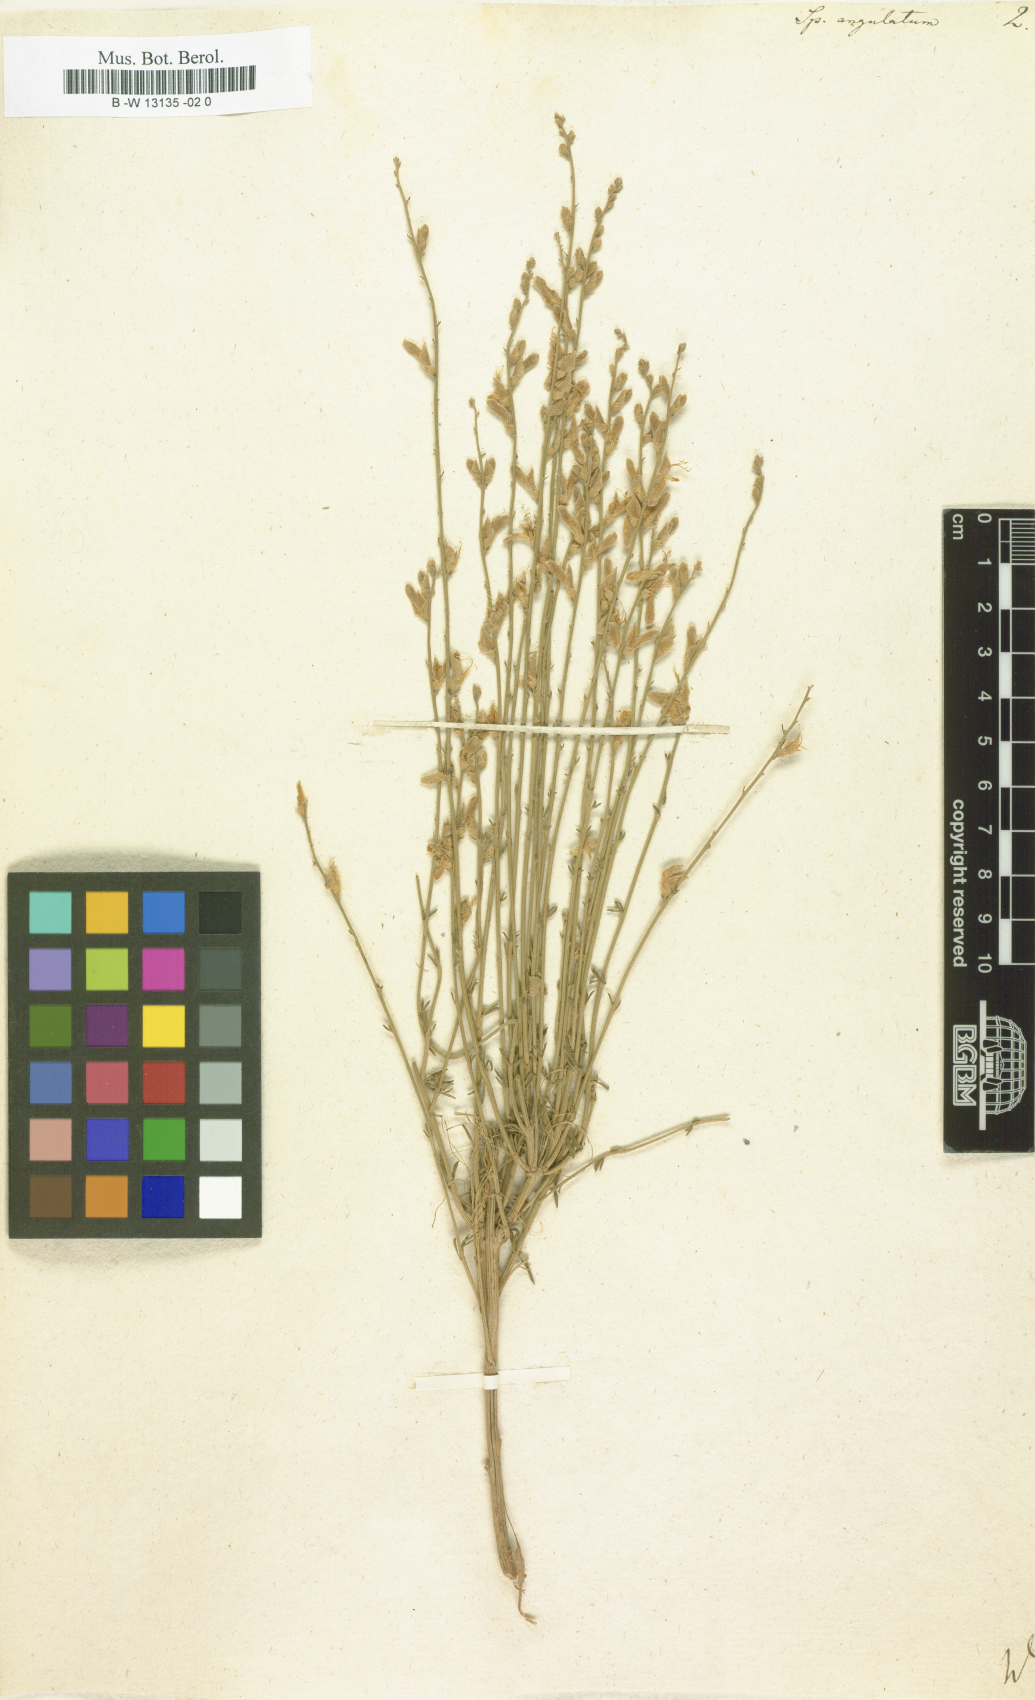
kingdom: Plantae
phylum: Tracheophyta
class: Magnoliopsida
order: Fabales
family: Fabaceae
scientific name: Fabaceae
